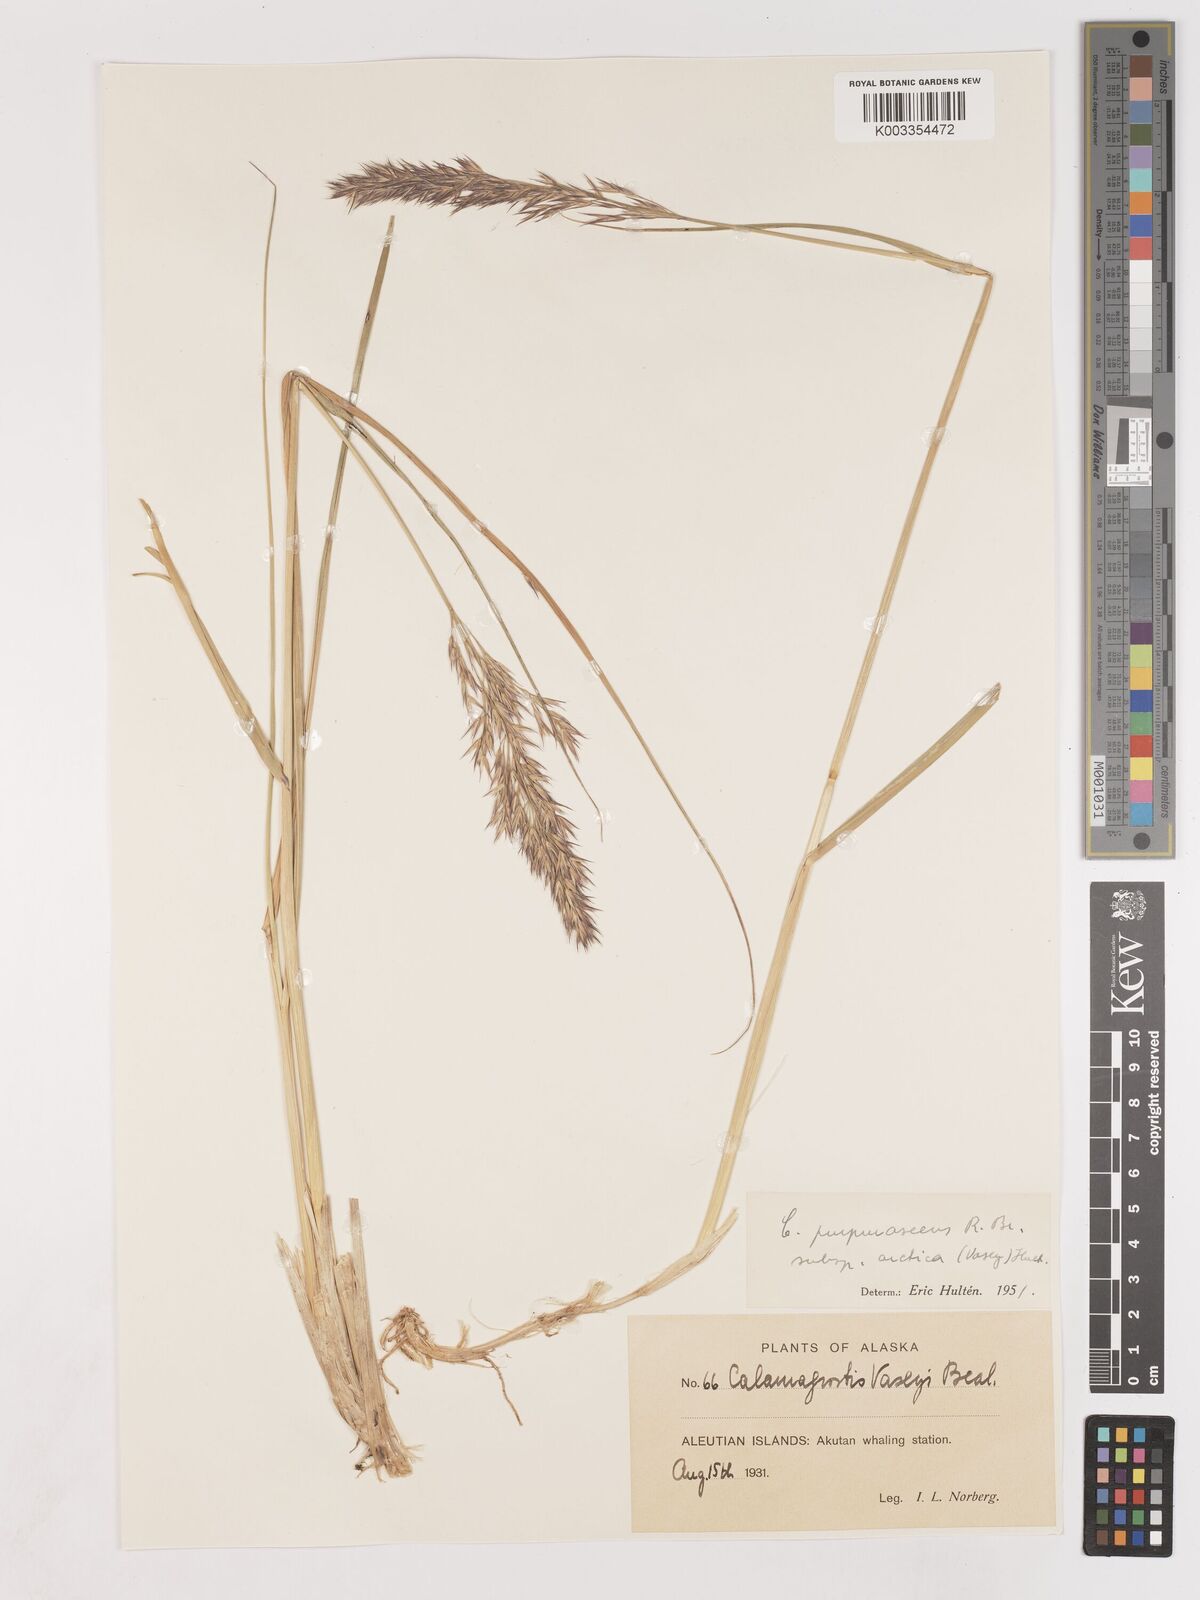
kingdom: Plantae
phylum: Tracheophyta
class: Liliopsida
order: Poales
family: Poaceae
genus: Calamagrostis
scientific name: Calamagrostis purpurascens
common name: Purple reedgrass
